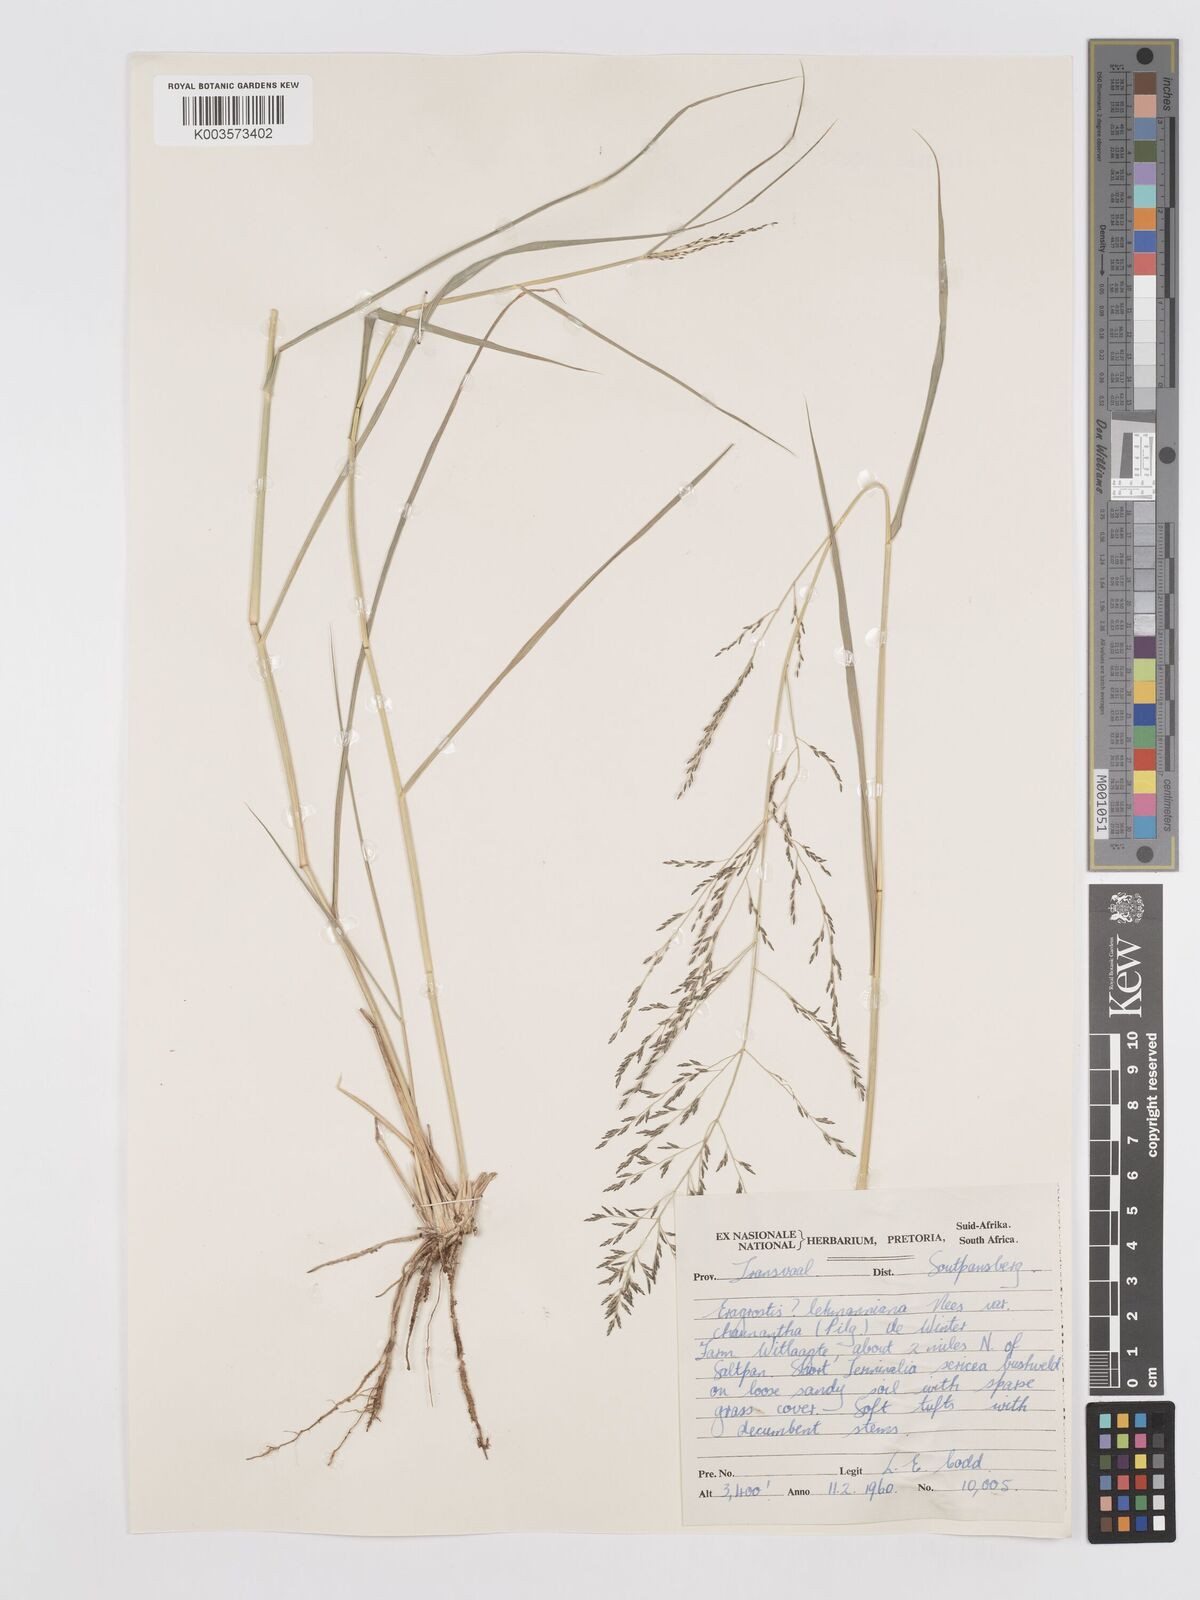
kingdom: Plantae
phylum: Tracheophyta
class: Liliopsida
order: Poales
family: Poaceae
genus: Eragrostis
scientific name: Eragrostis lehmanniana
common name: Lehmann lovegrass
